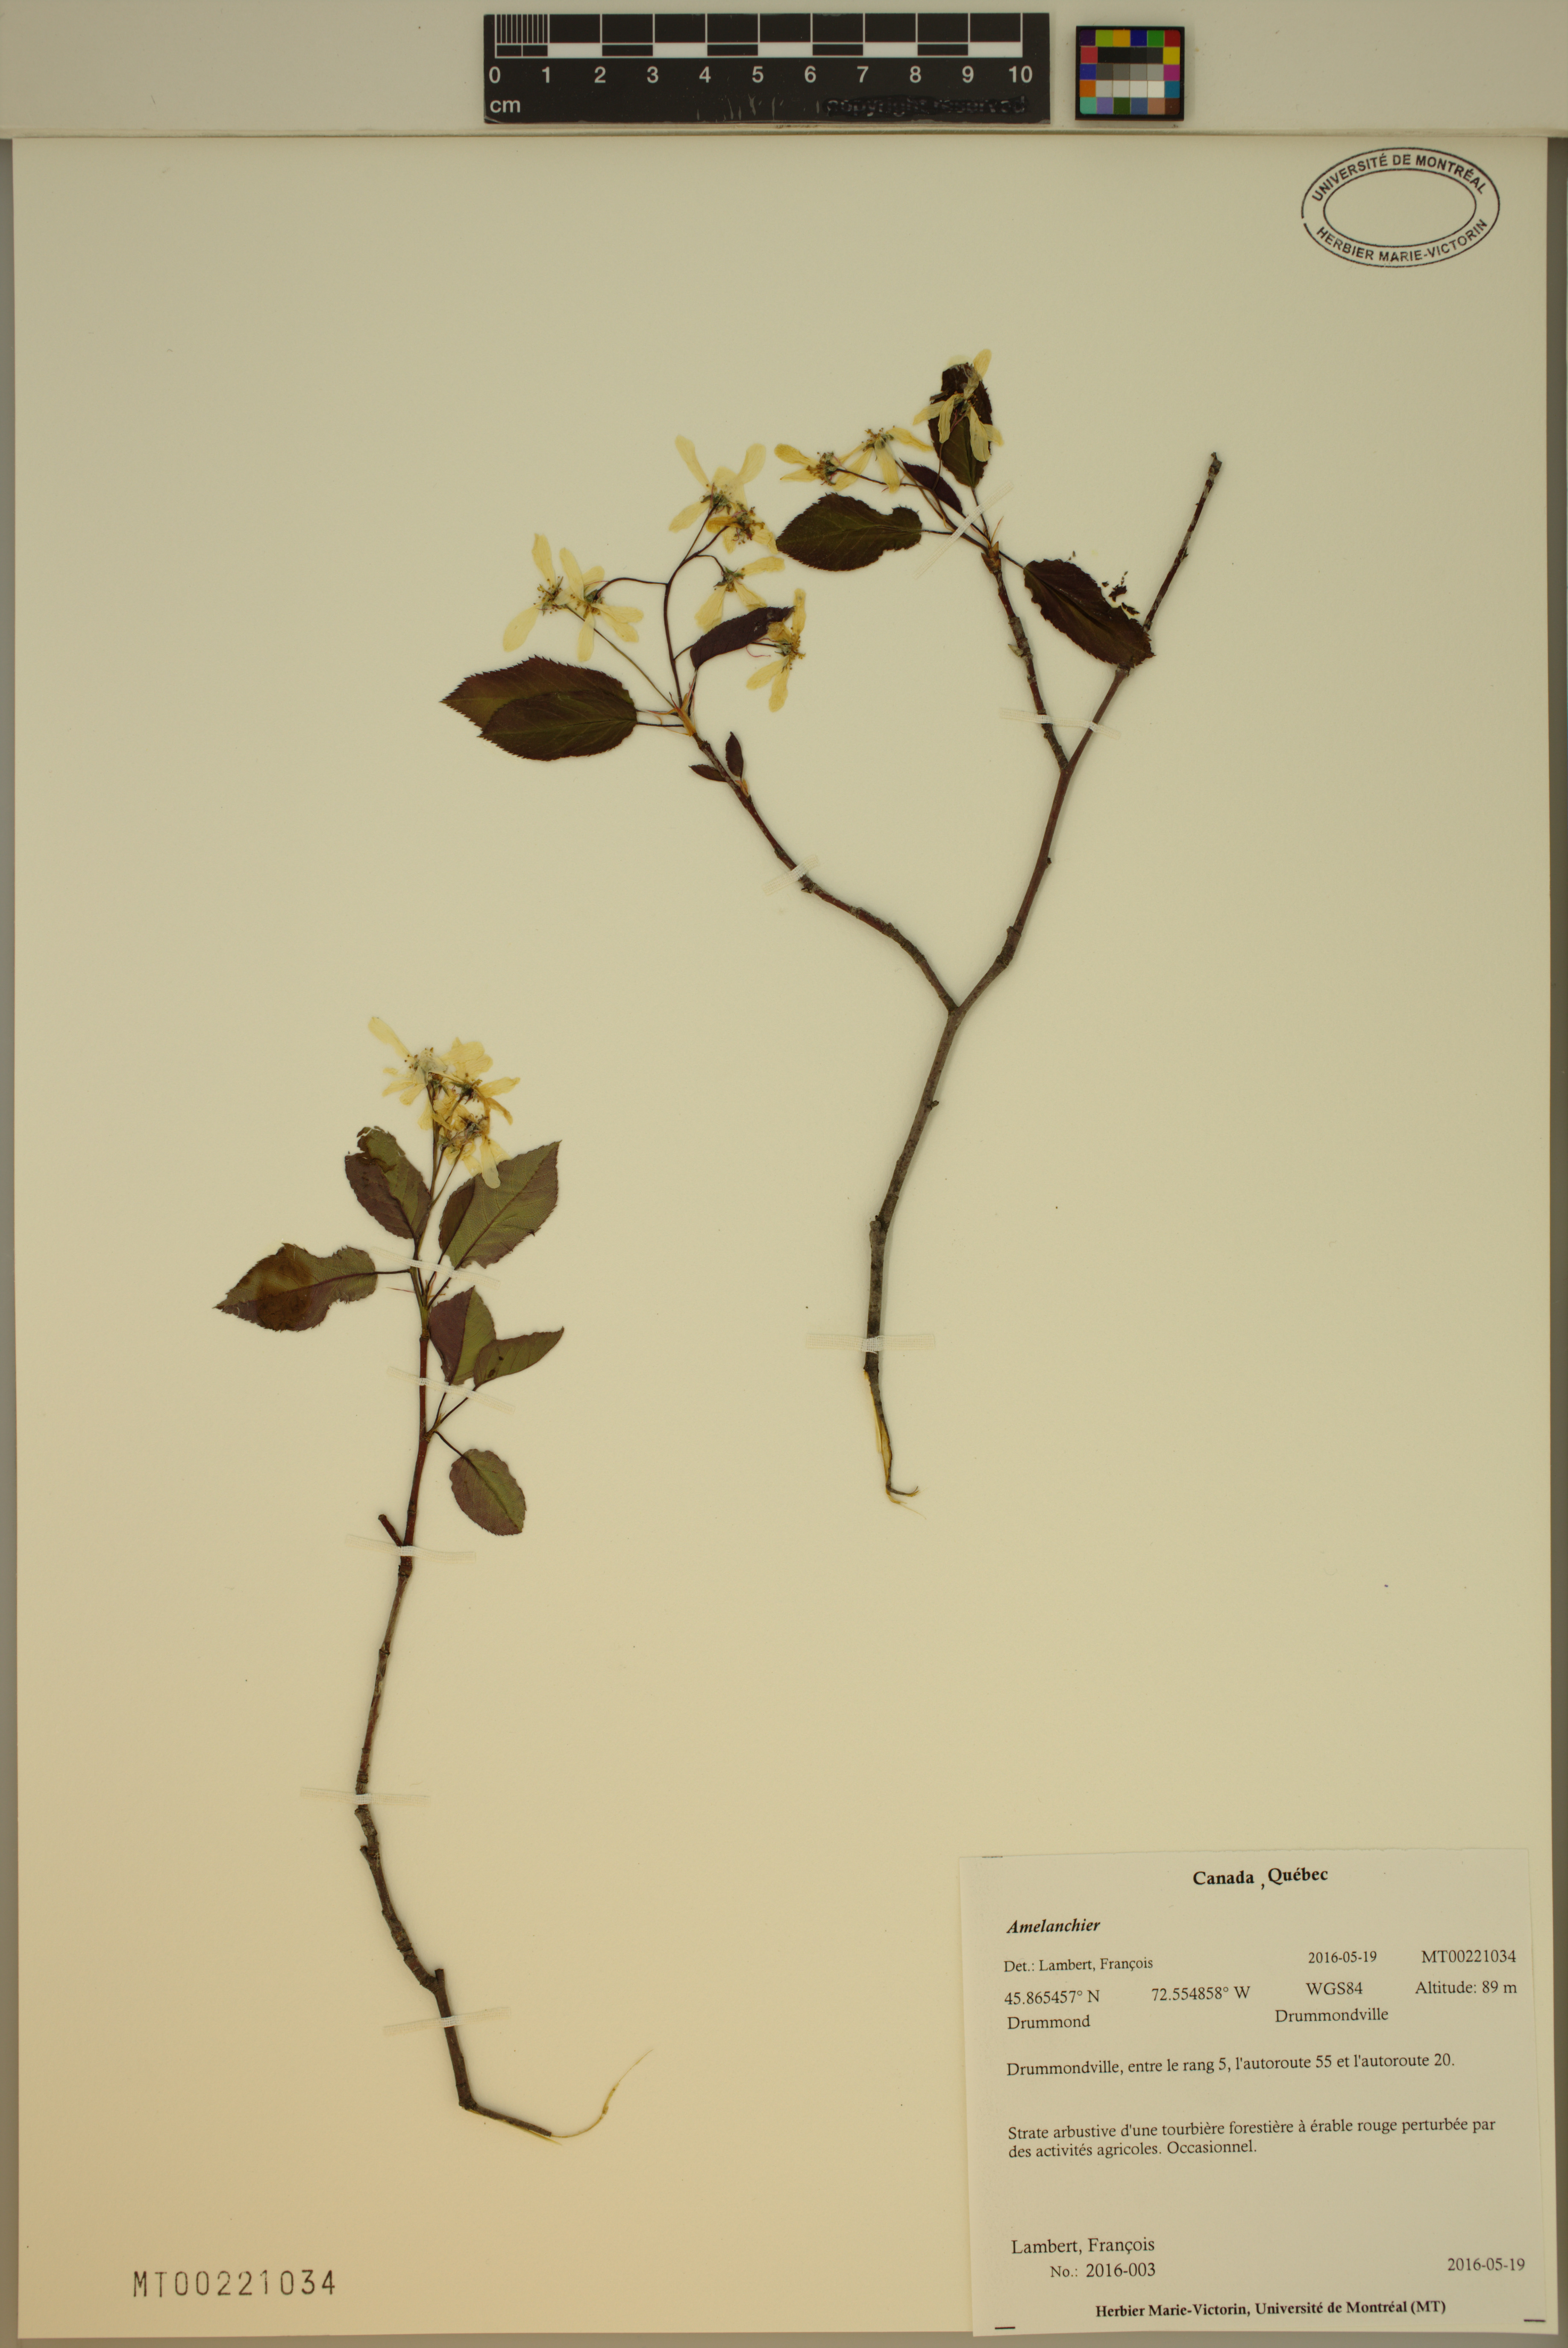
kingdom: Plantae
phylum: Tracheophyta
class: Magnoliopsida
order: Rosales
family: Rosaceae
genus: Amelanchier
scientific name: Amelanchier
